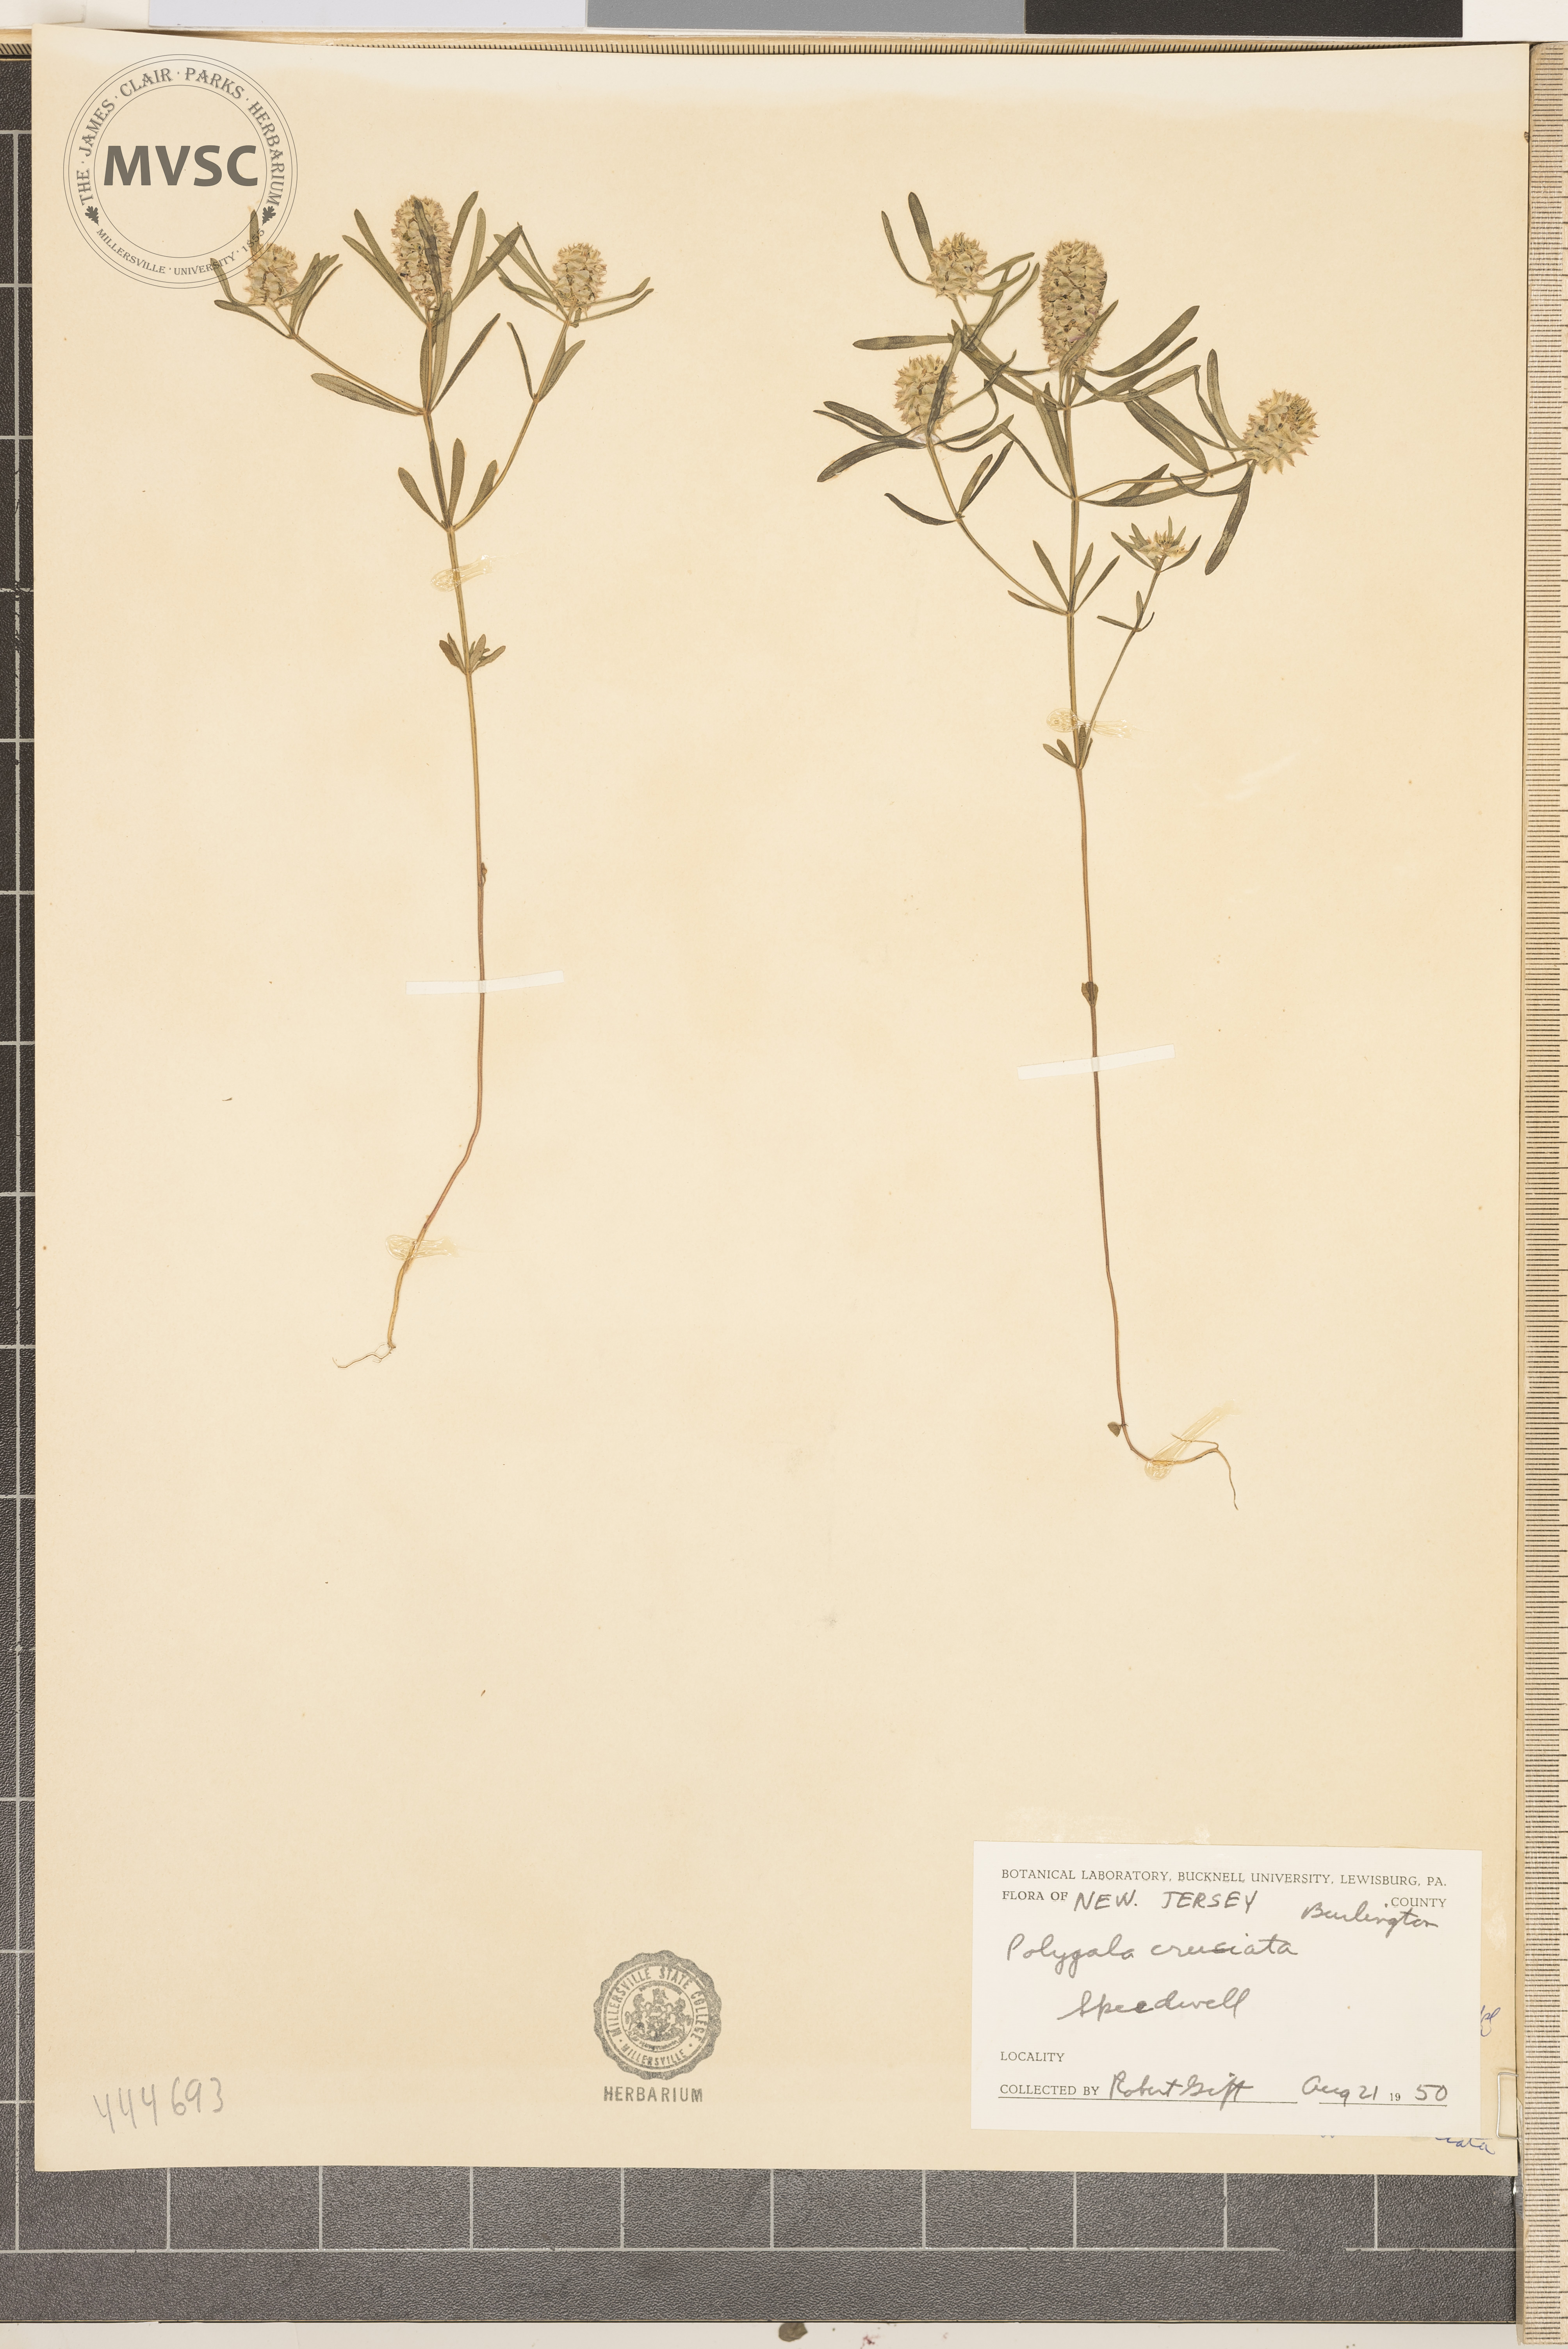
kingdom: Plantae
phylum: Tracheophyta
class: Magnoliopsida
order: Fabales
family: Polygalaceae
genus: Polygala
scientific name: Polygala cruciata
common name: Drumheads
